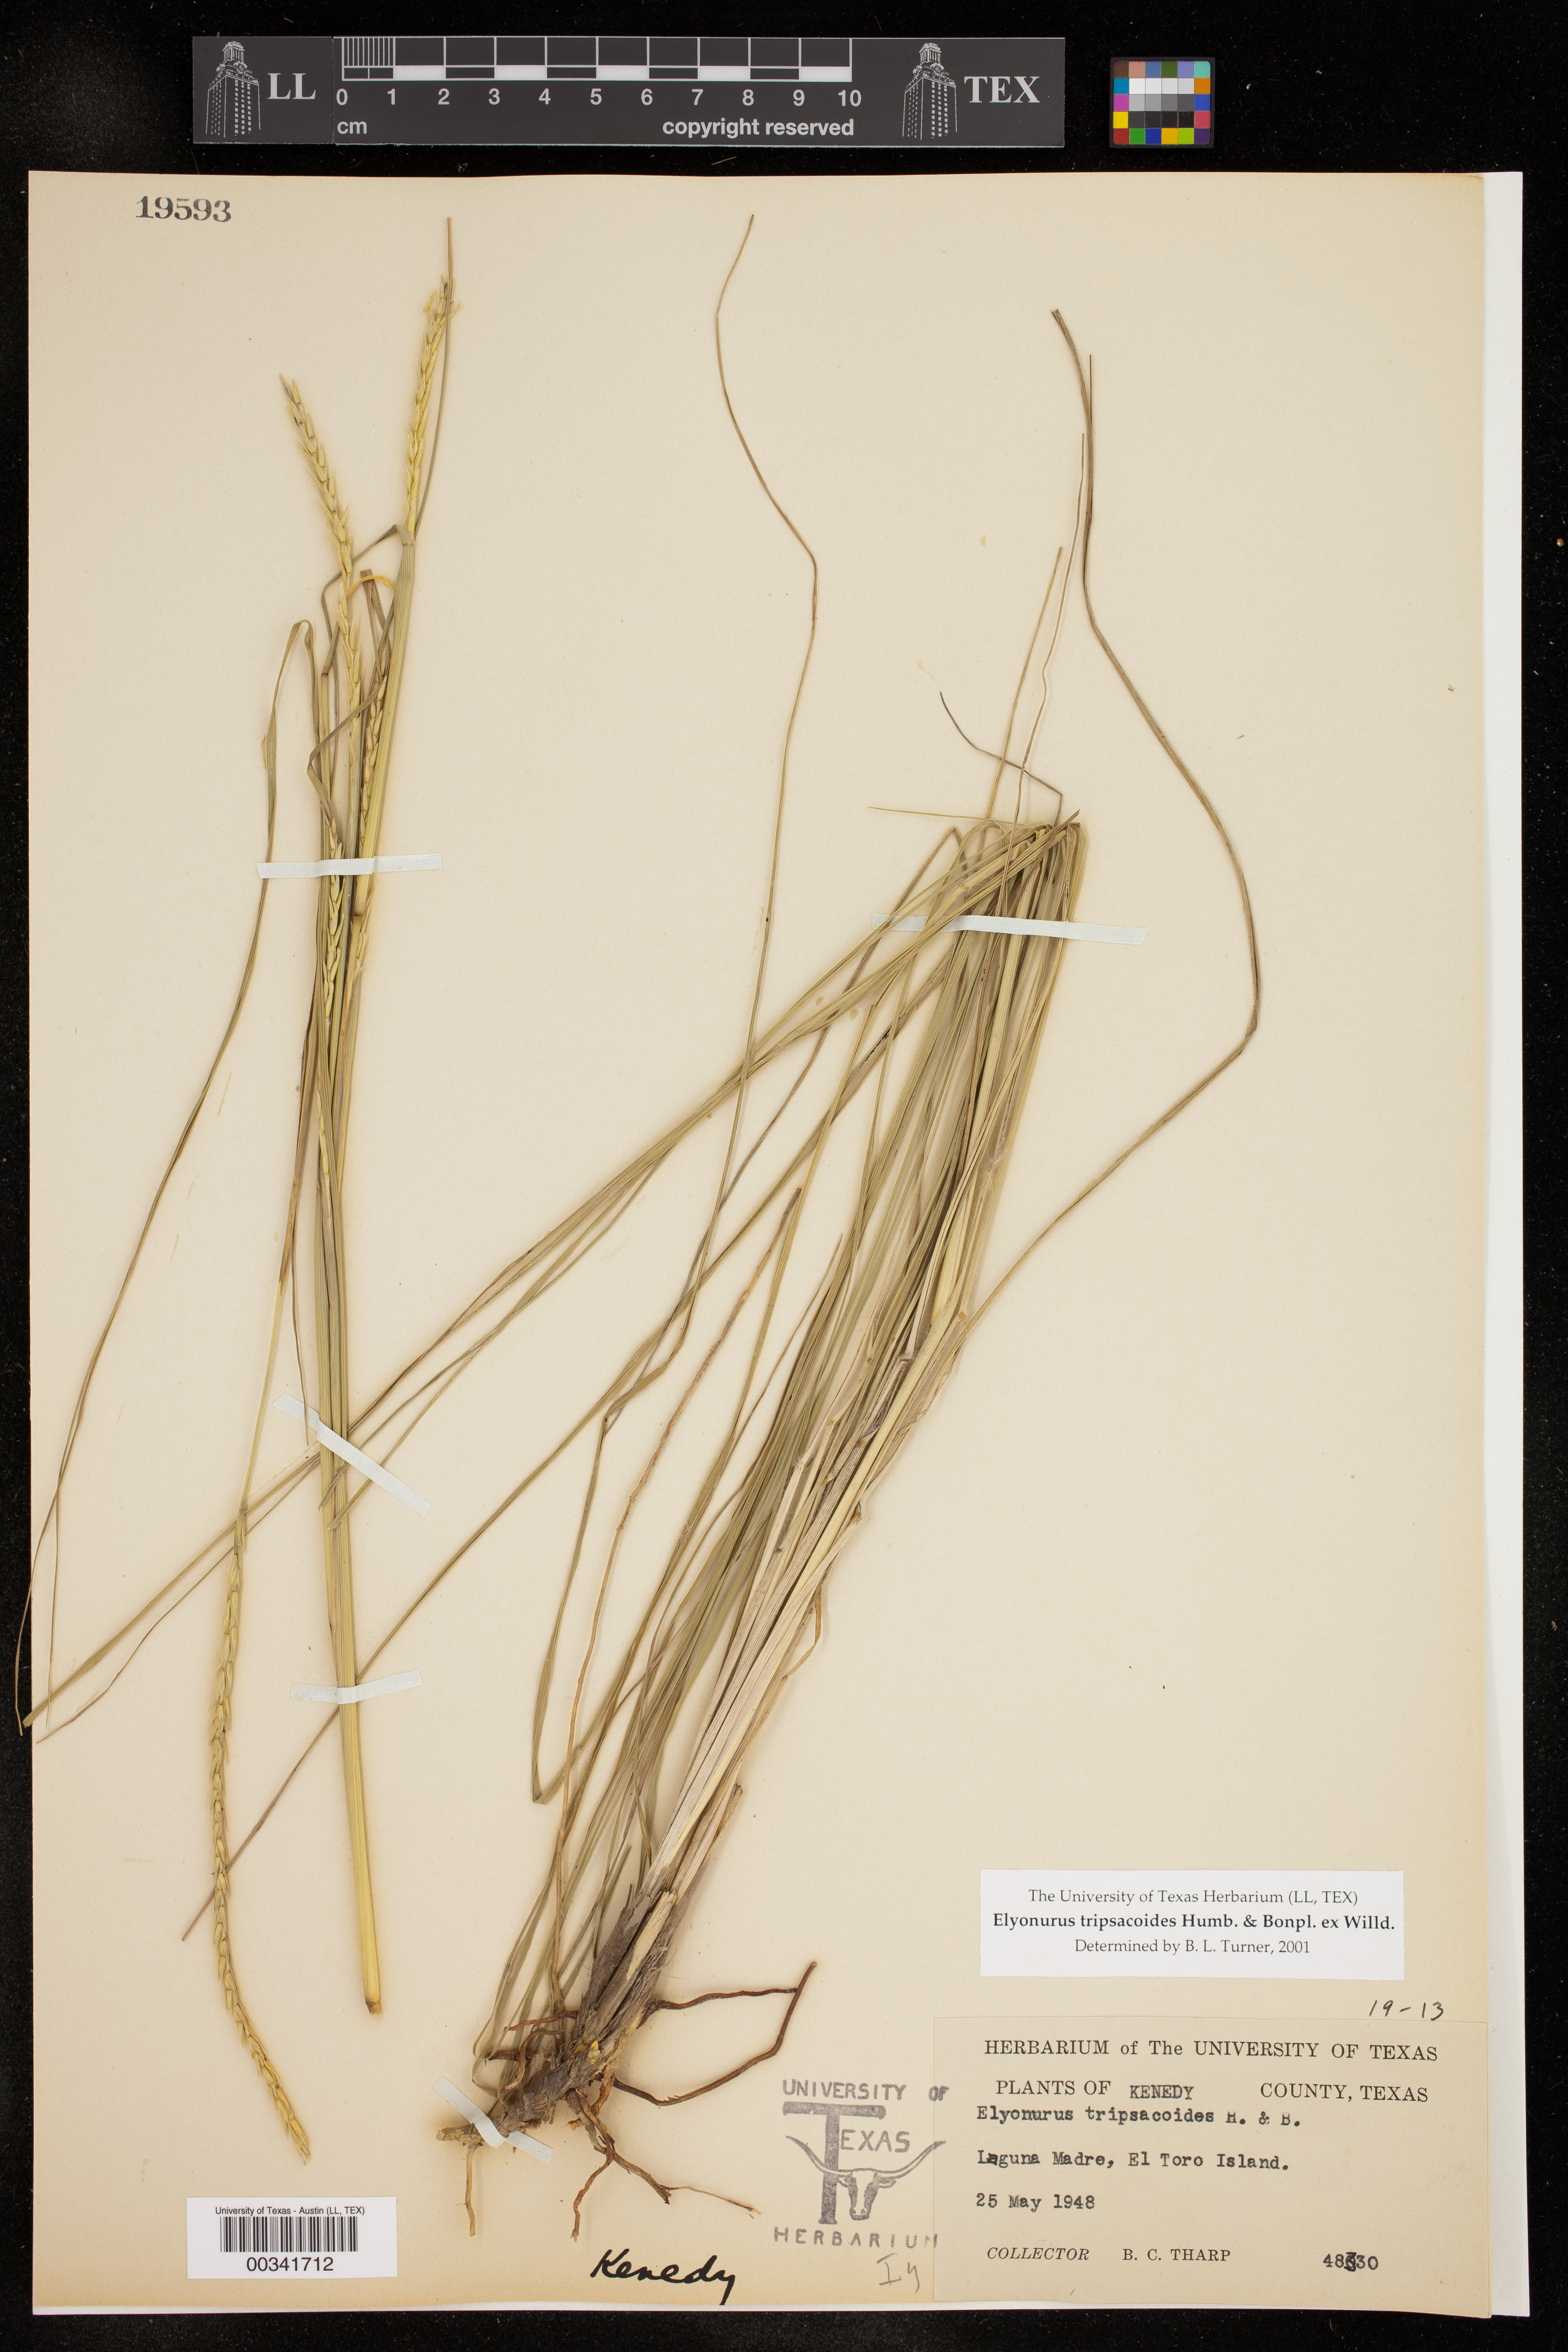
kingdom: Plantae
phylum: Tracheophyta
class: Liliopsida
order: Poales
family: Poaceae
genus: Elionurus
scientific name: Elionurus tripsacoides
